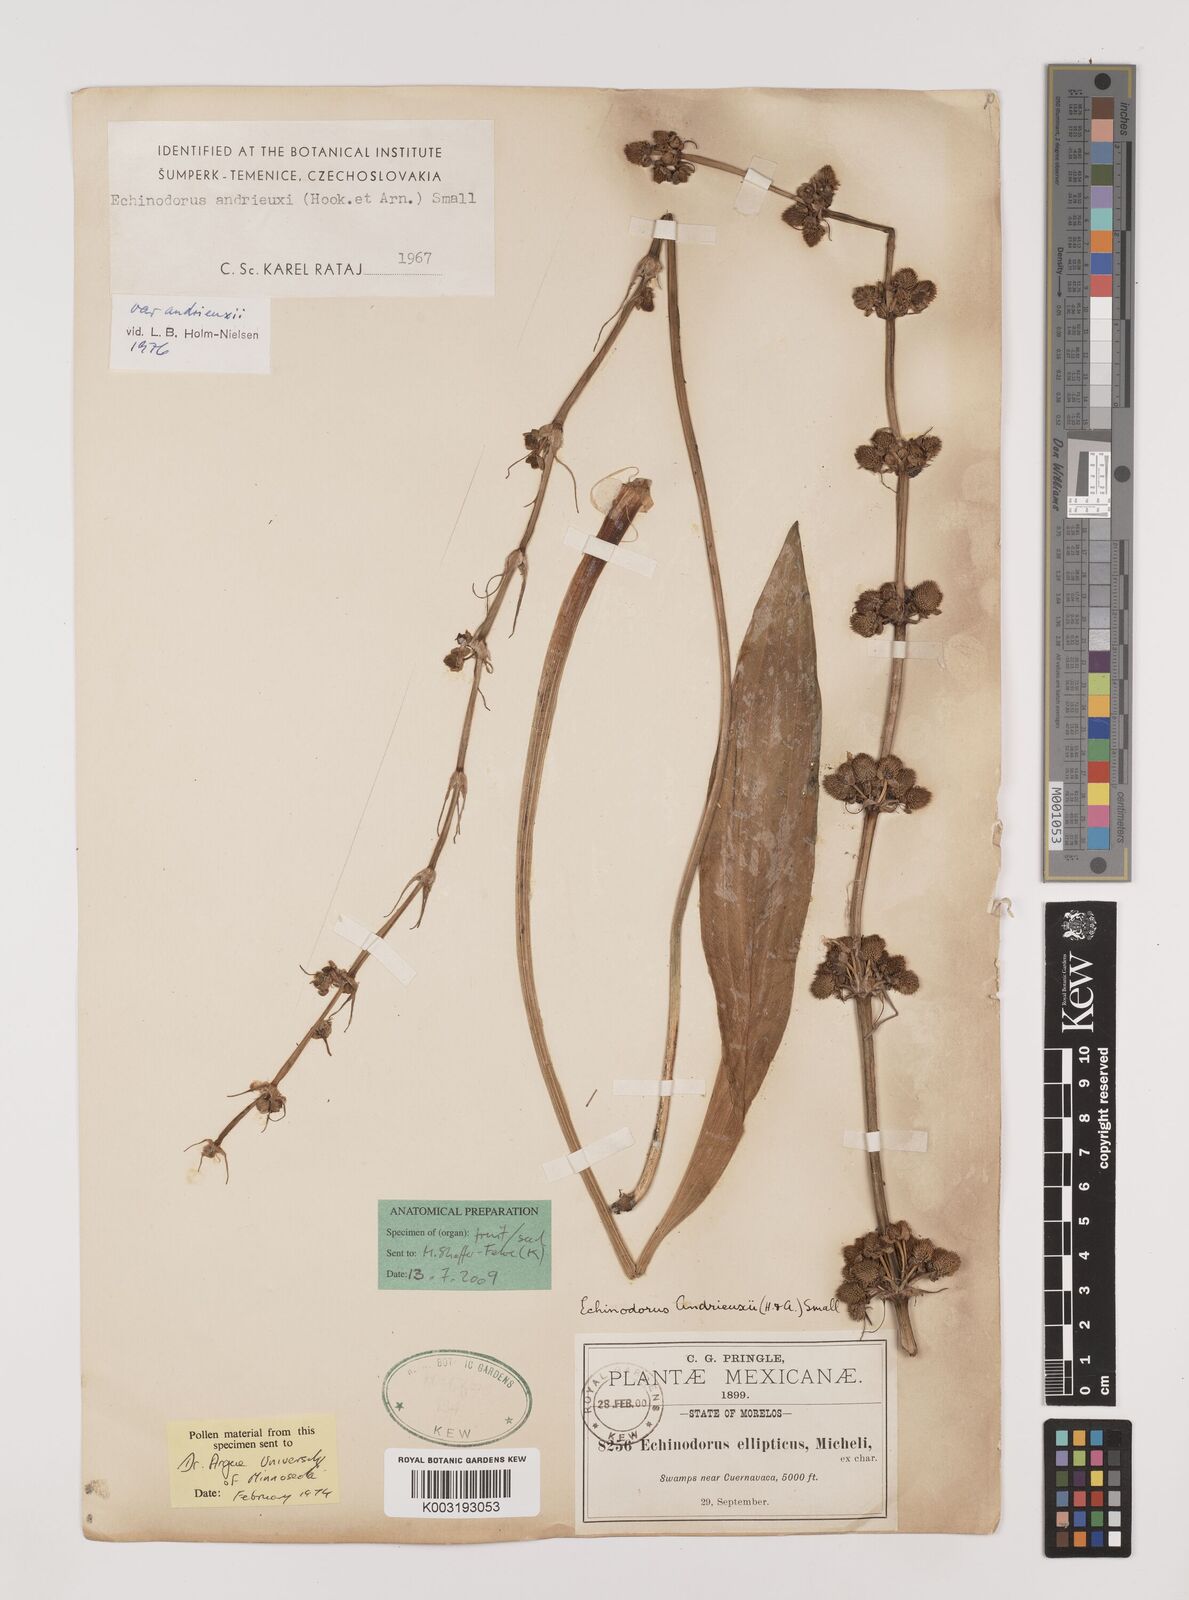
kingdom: Plantae
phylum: Tracheophyta
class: Liliopsida
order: Alismatales
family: Alismataceae
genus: Aquarius
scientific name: Aquarius subulatus
